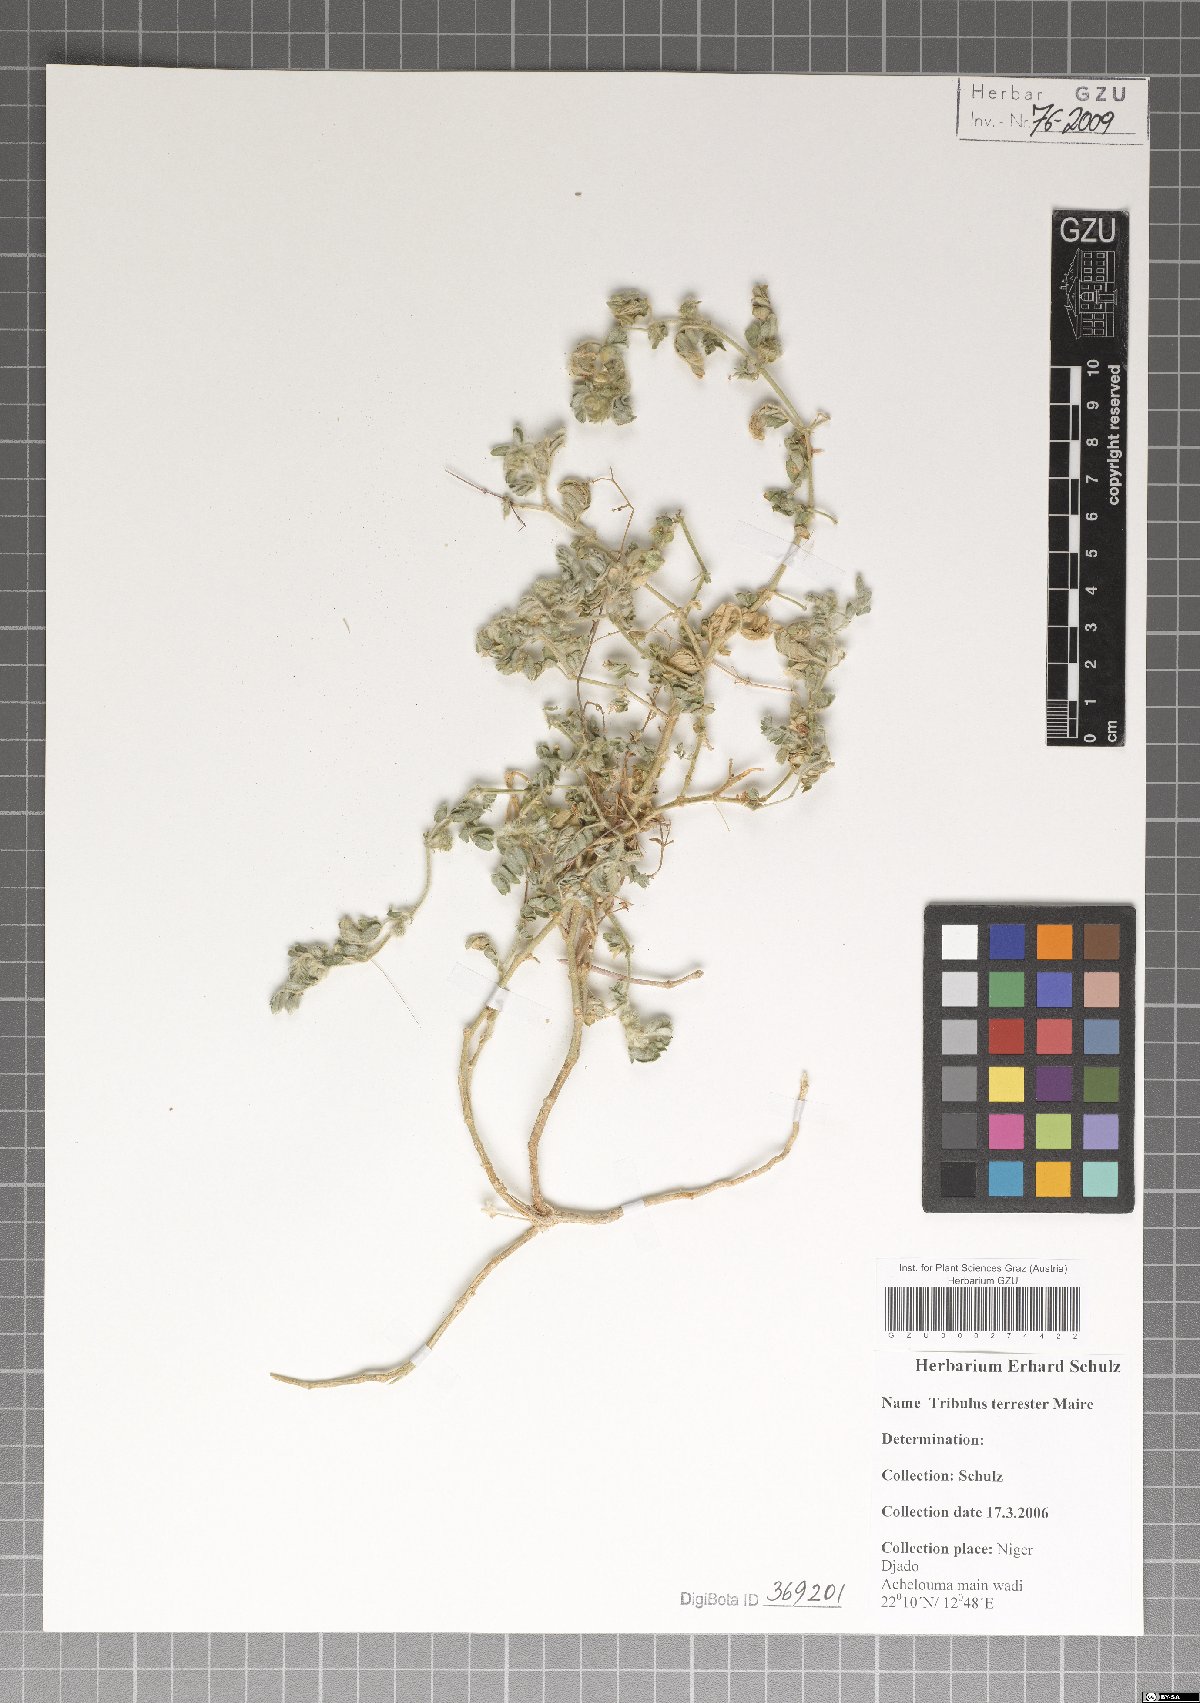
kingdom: Plantae
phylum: Tracheophyta
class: Magnoliopsida
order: Zygophyllales
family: Zygophyllaceae
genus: Tribulus
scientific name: Tribulus terrestris
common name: Puncturevine
